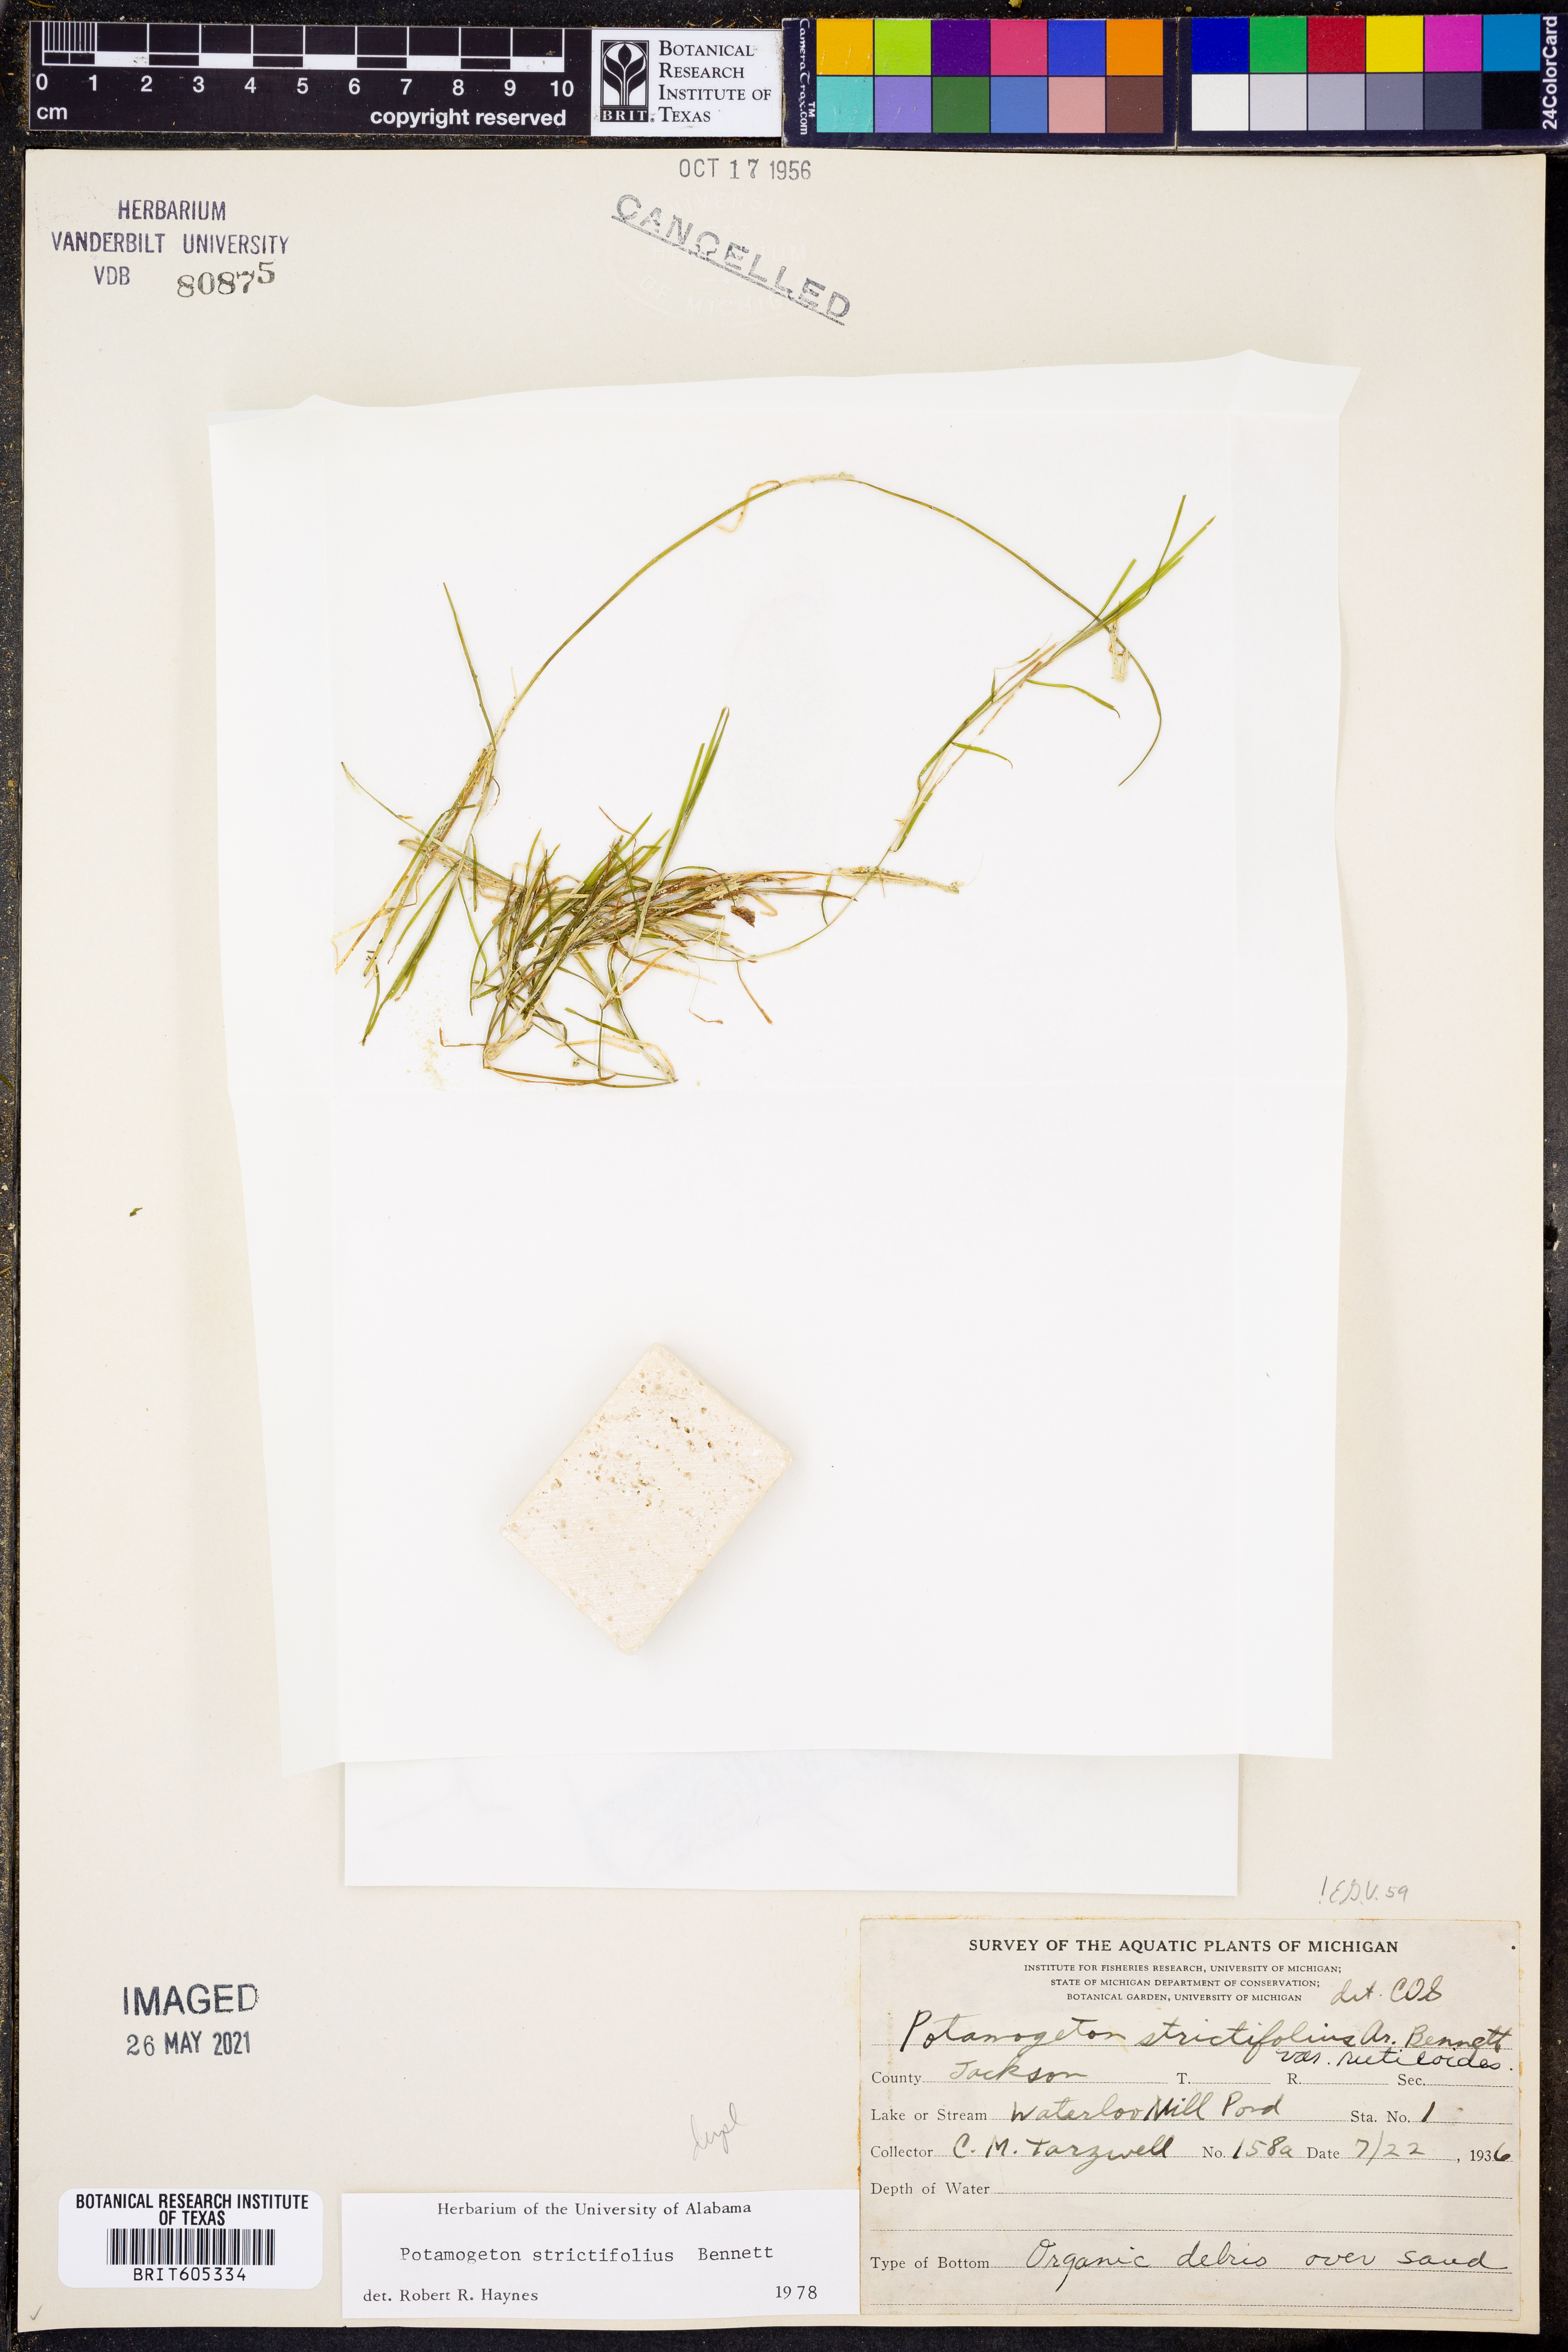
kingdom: Plantae
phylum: Tracheophyta
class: Liliopsida
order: Alismatales
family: Potamogetonaceae
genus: Potamogeton
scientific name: Potamogeton strictifolius
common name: Linear-leaved pondweed
